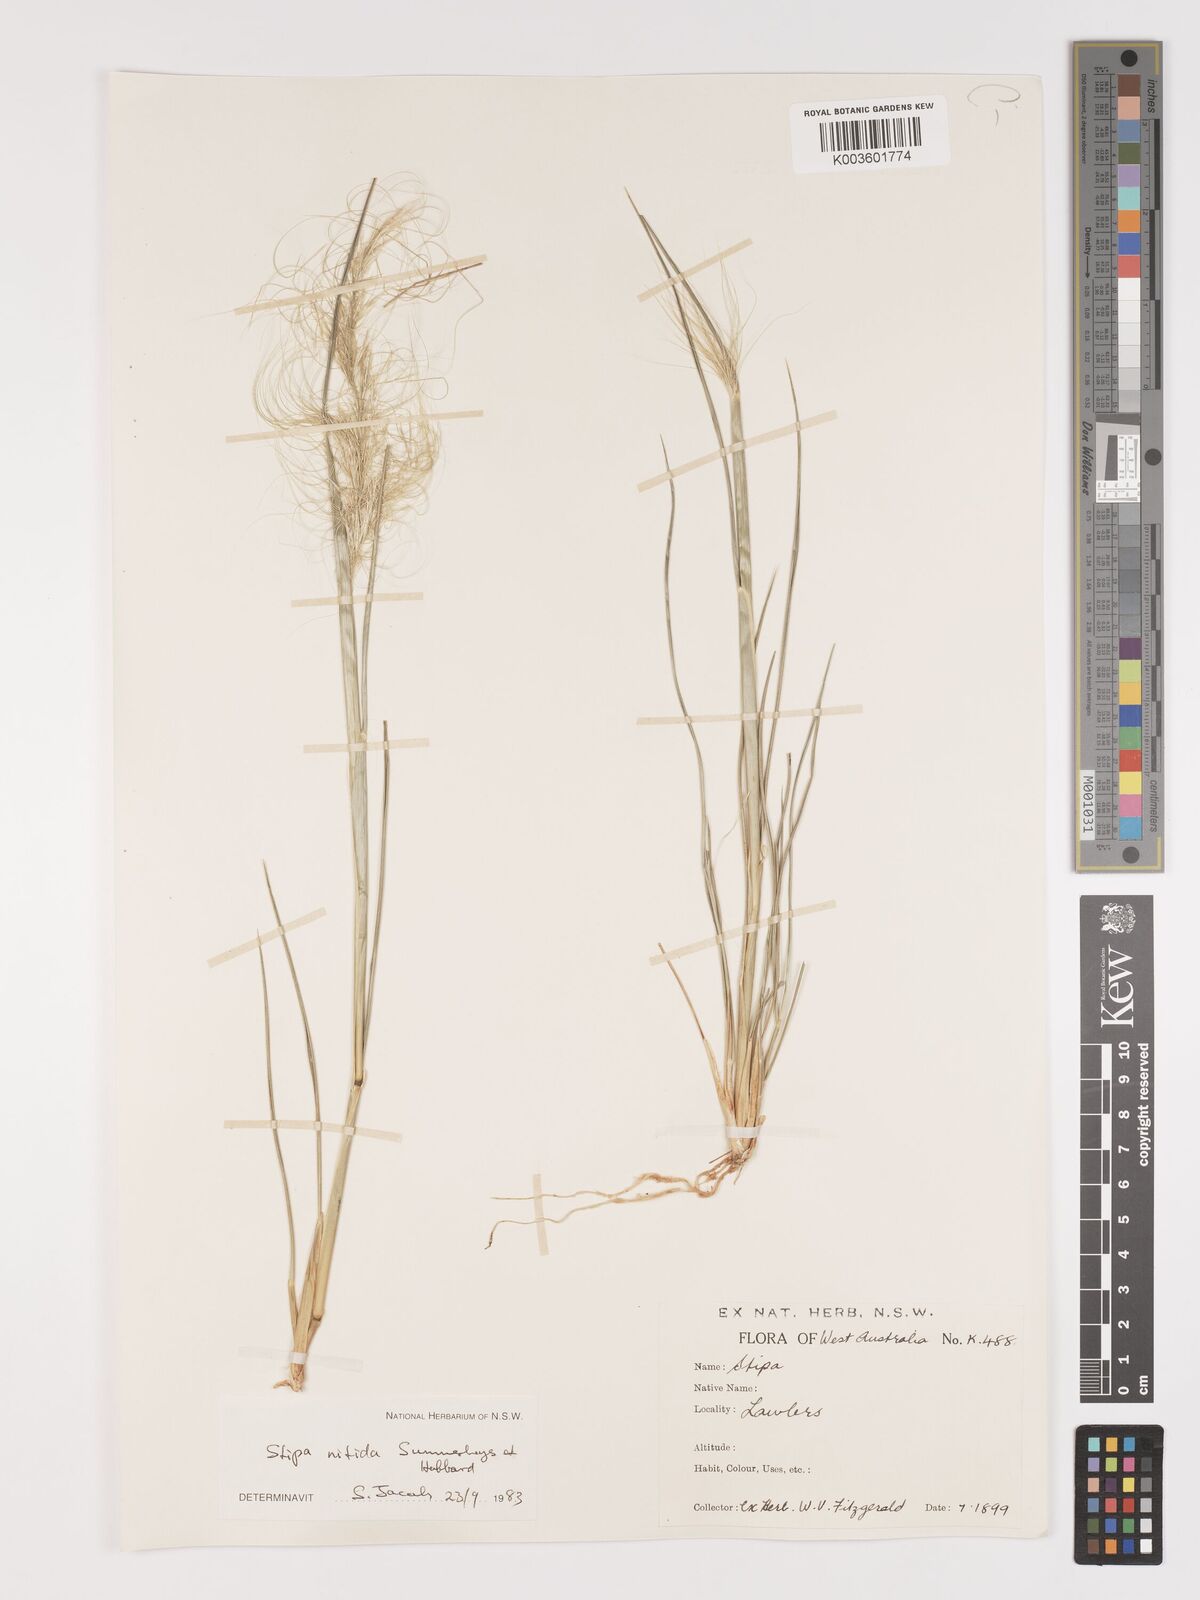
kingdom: Plantae
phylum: Tracheophyta
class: Liliopsida
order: Poales
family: Poaceae
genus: Austrostipa
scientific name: Austrostipa nitida
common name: Balcarra grass
